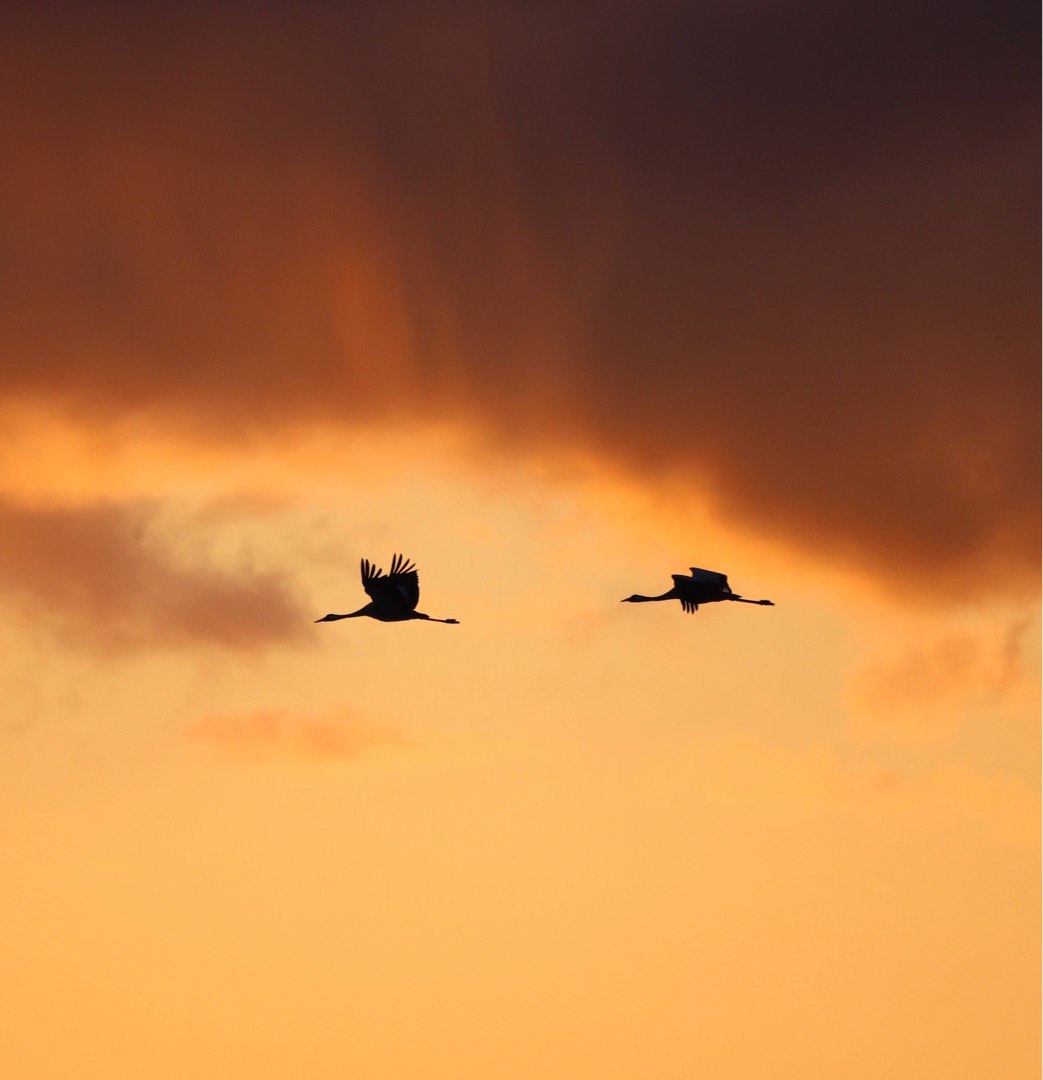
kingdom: Animalia
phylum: Chordata
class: Aves
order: Gruiformes
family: Gruidae
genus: Grus
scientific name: Grus grus
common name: Trane
